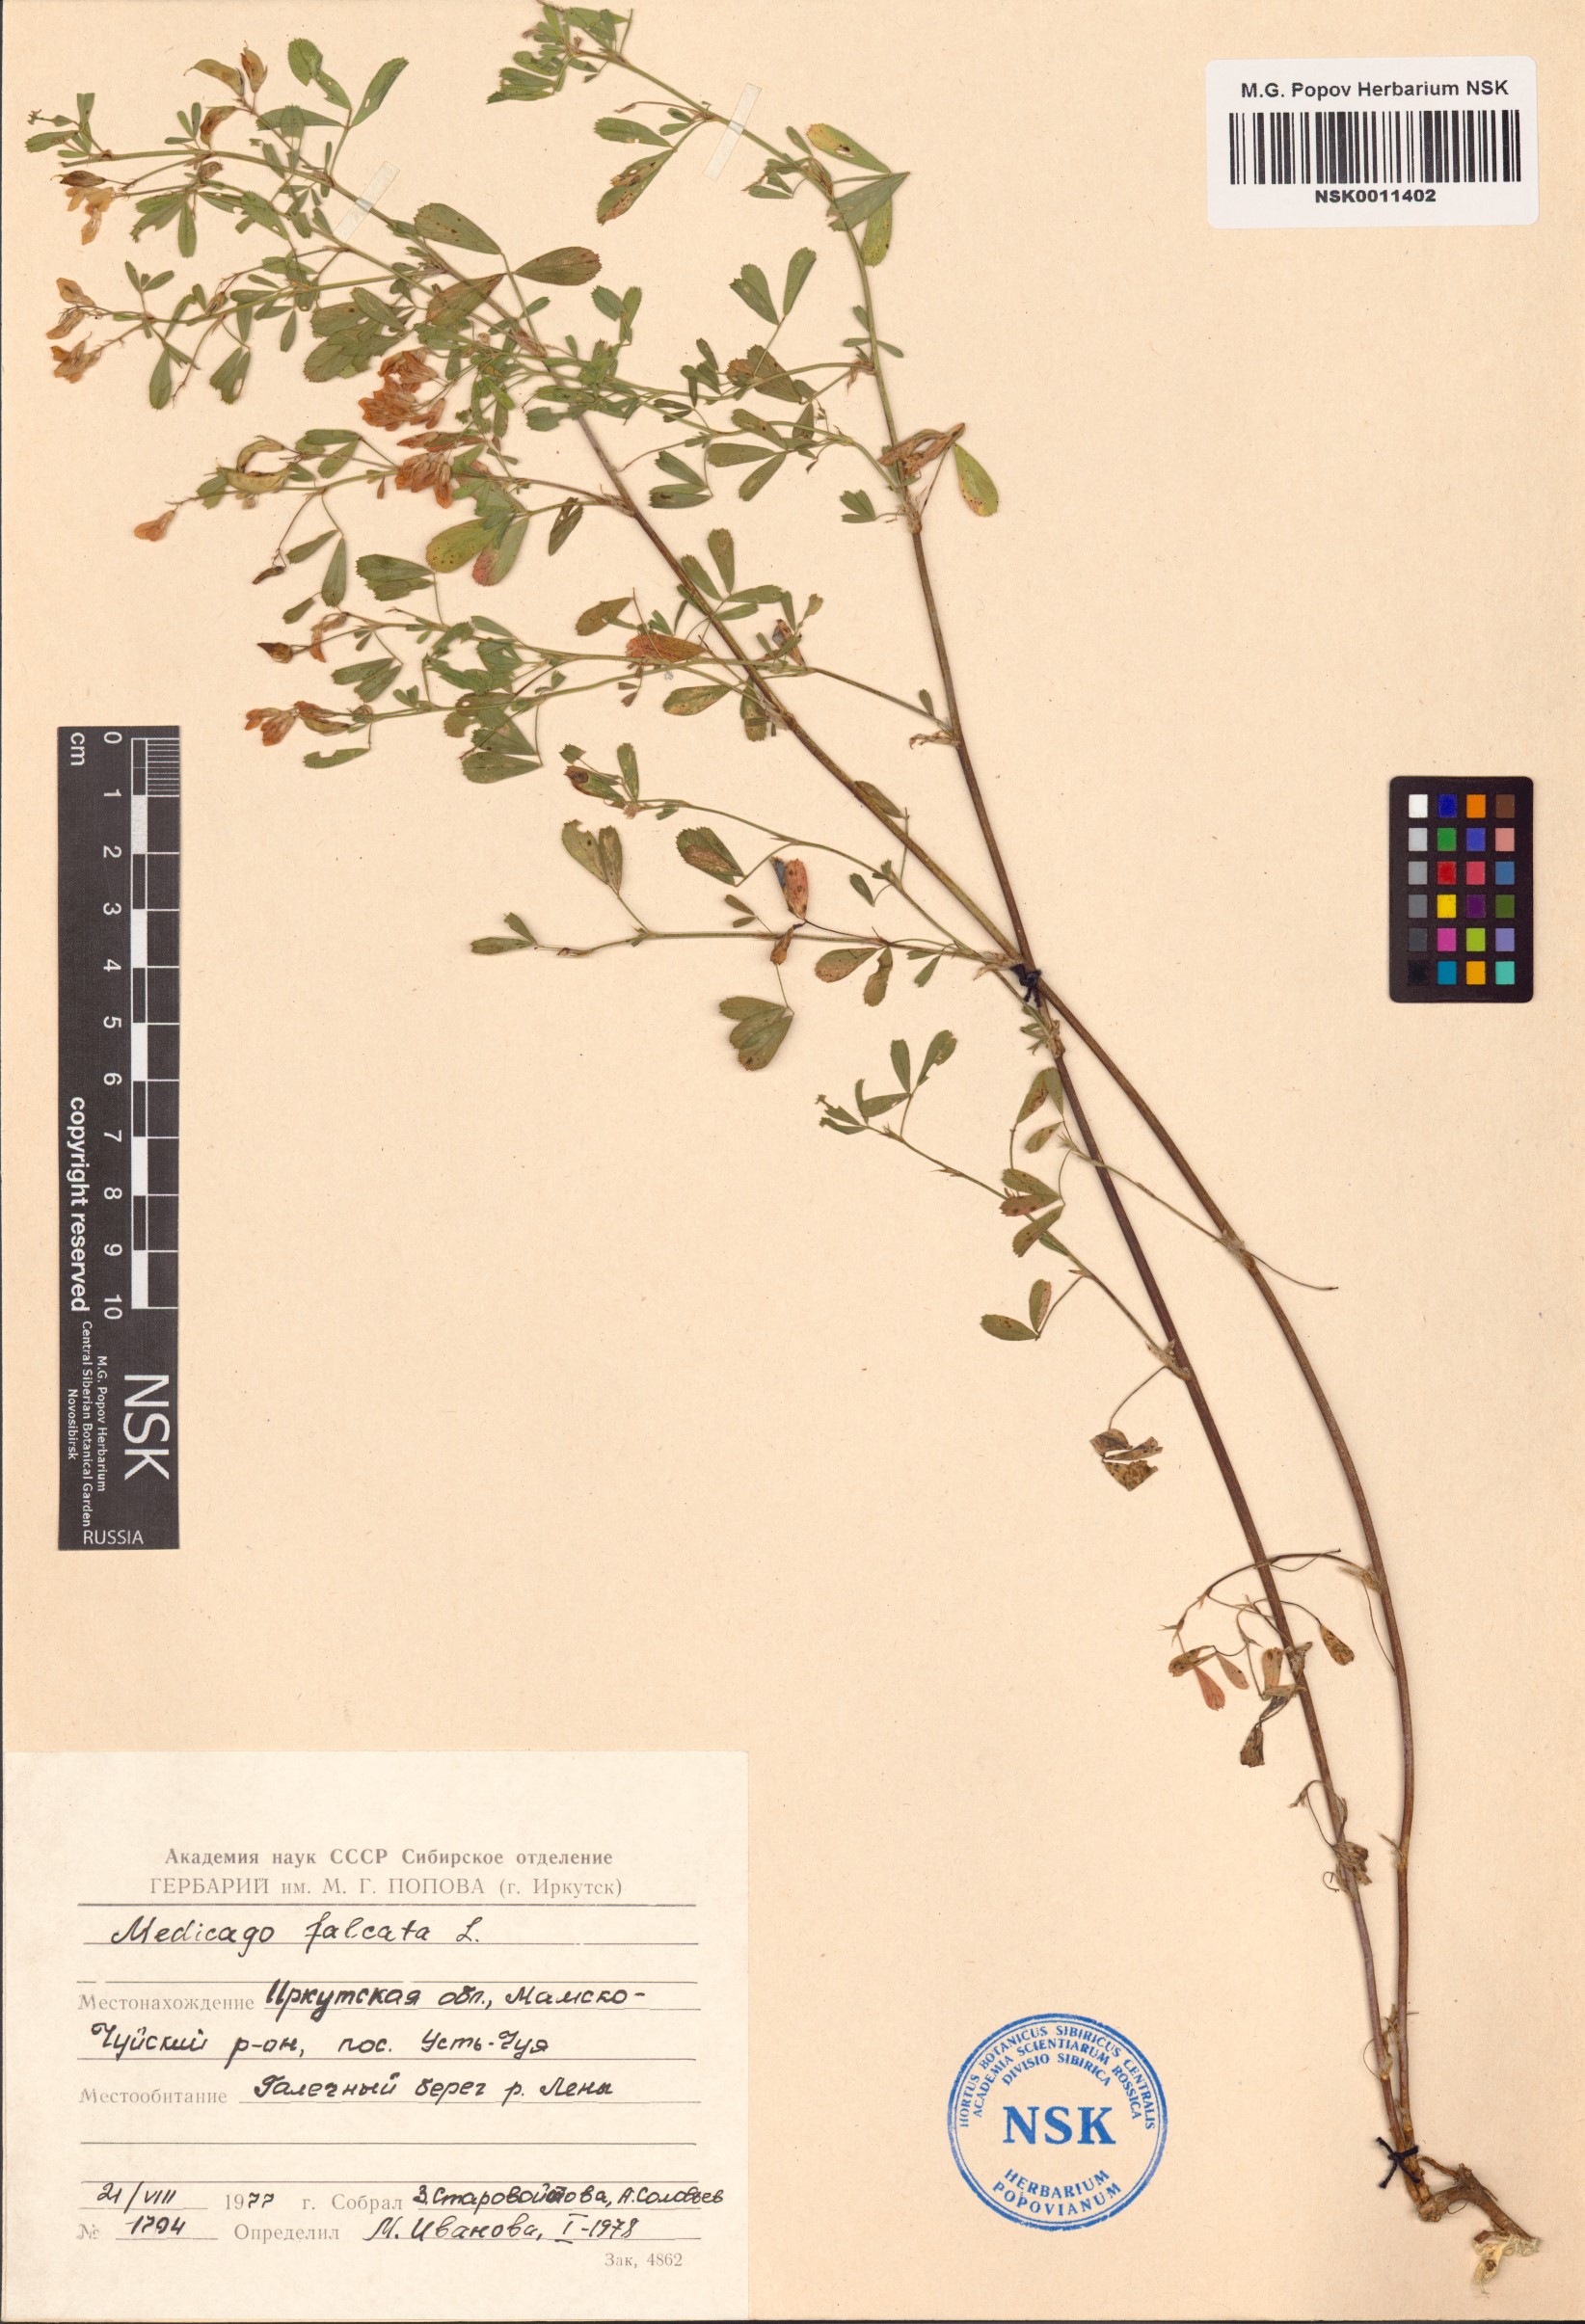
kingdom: Plantae
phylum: Tracheophyta
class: Magnoliopsida
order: Fabales
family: Fabaceae
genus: Medicago
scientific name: Medicago falcata
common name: Sickle medick
